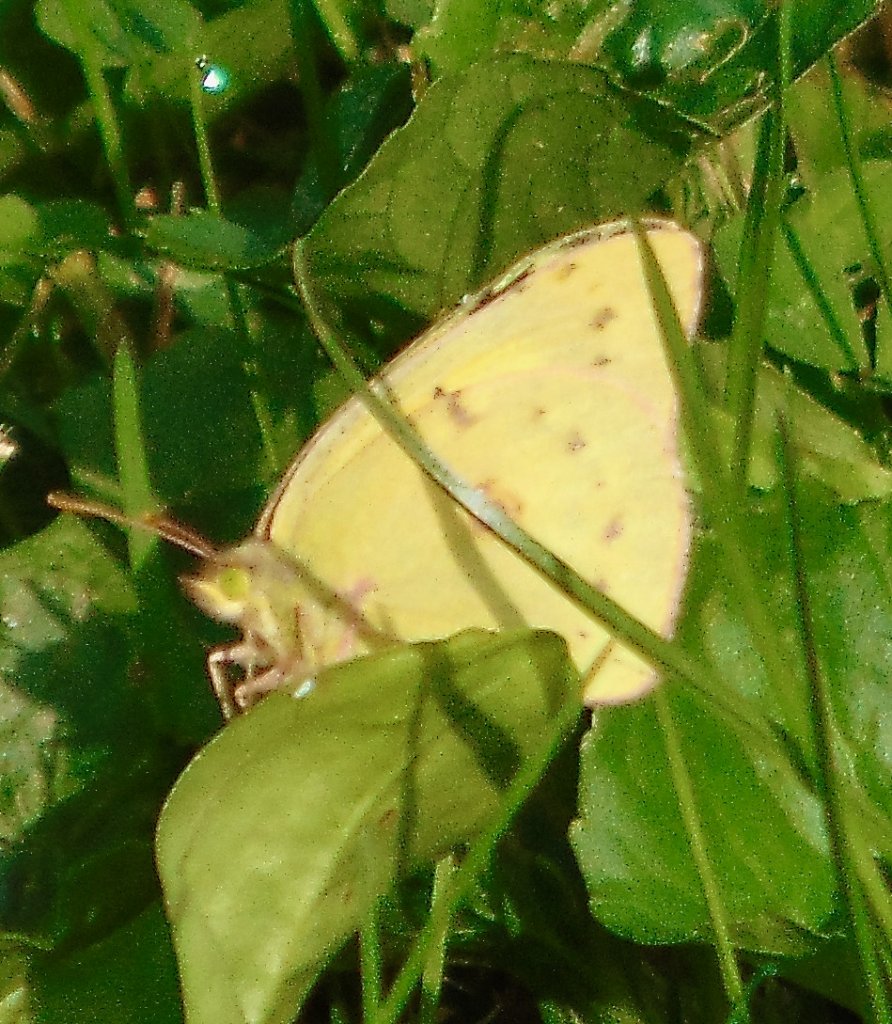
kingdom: Animalia
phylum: Arthropoda
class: Insecta
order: Lepidoptera
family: Pieridae
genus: Colias
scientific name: Colias philodice
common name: Clouded Sulphur
